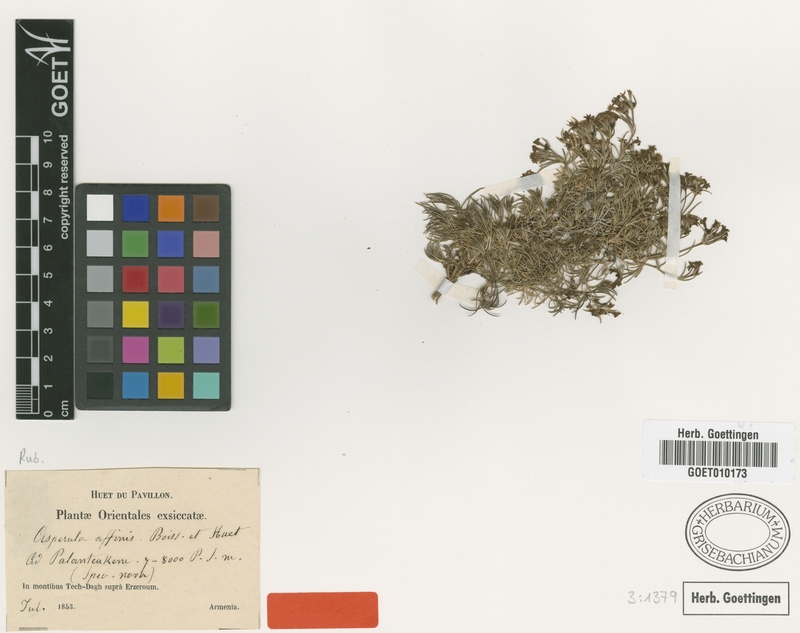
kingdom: Plantae
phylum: Tracheophyta
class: Magnoliopsida
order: Gentianales
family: Rubiaceae
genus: Cynanchica
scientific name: Cynanchica affinis
